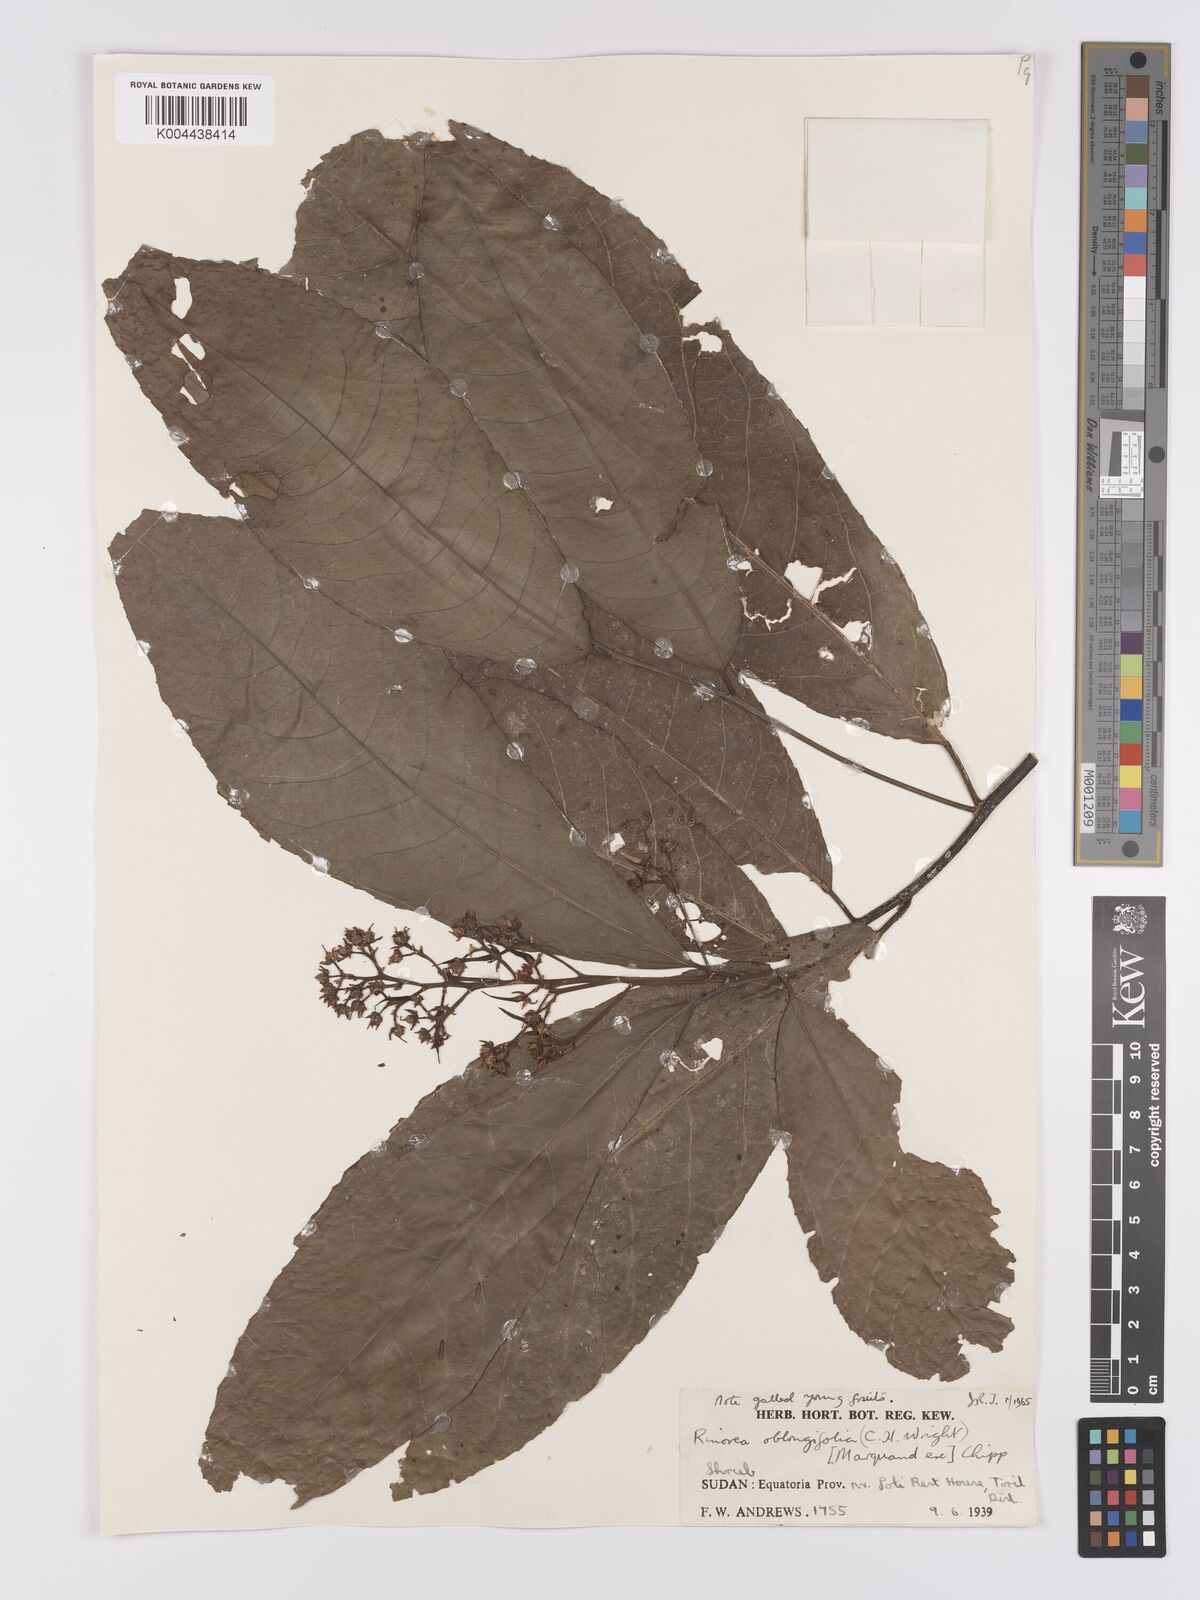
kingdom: Plantae
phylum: Tracheophyta
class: Magnoliopsida
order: Apiales
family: Pittosporaceae
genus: Marianthus
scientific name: Marianthus coeruleopunctatus
